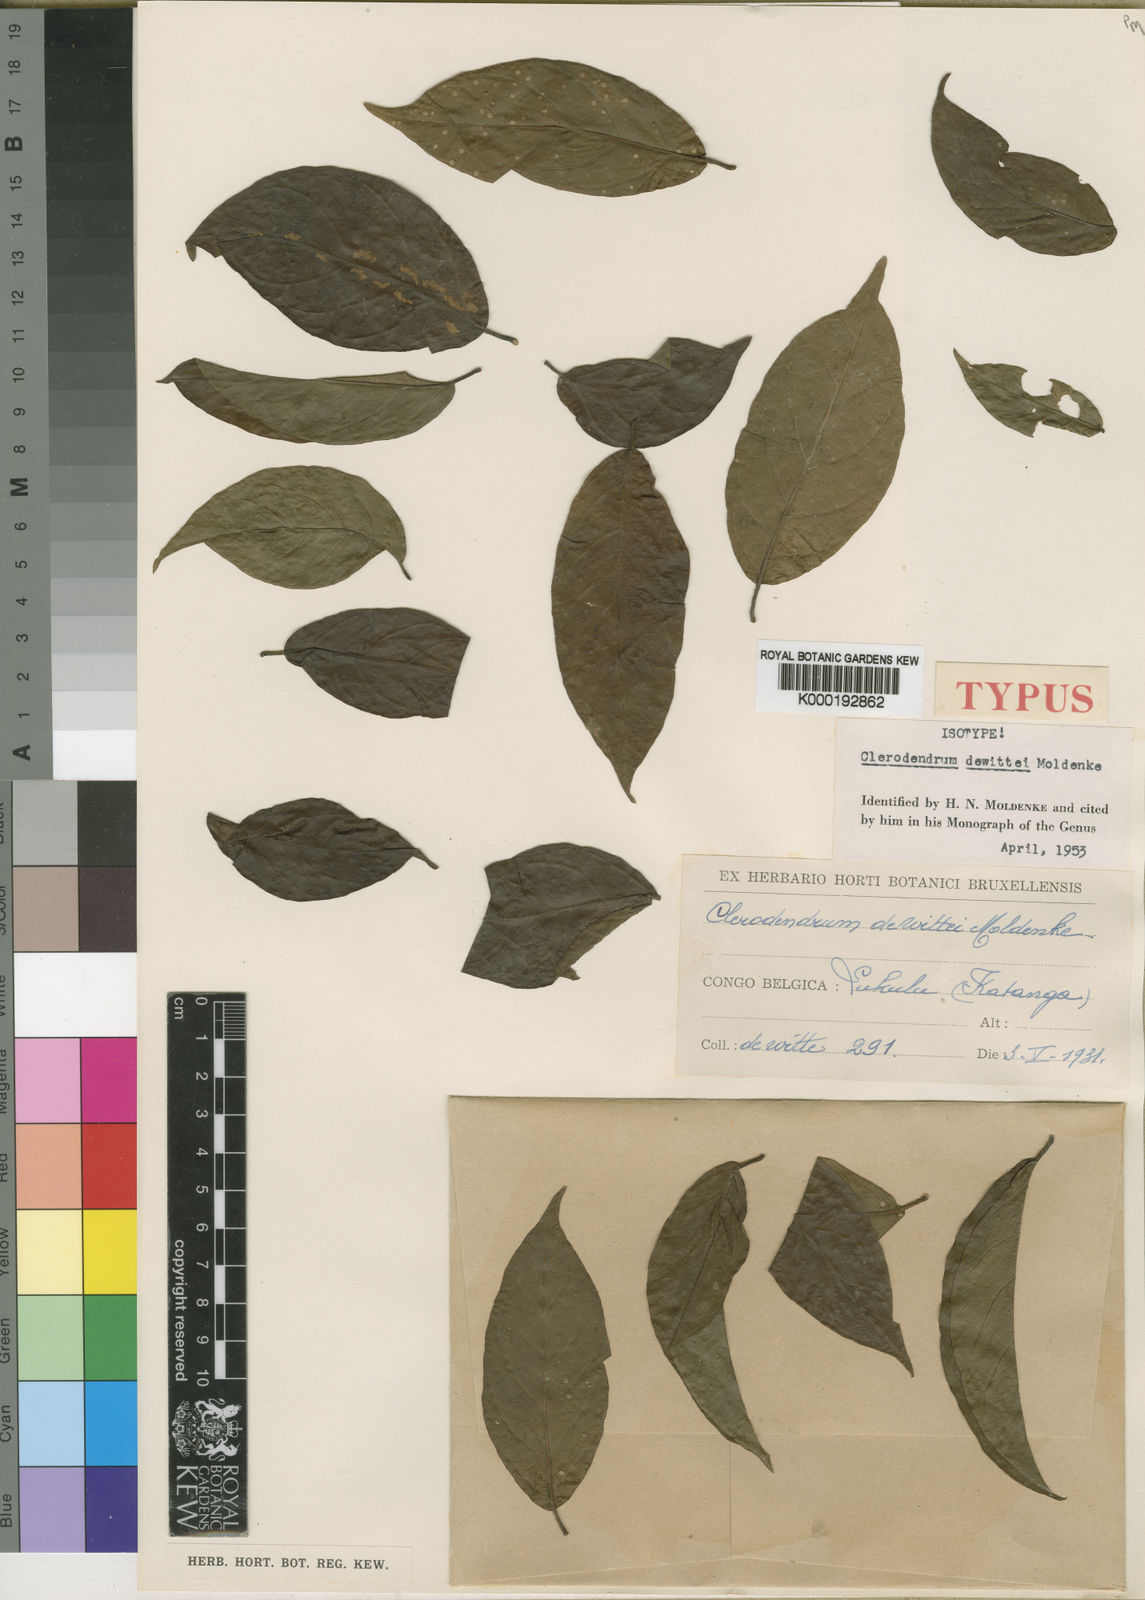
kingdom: Plantae
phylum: Tracheophyta
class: Magnoliopsida
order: Lamiales
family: Lamiaceae
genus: Clerodendrum
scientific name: Clerodendrum dewittei
